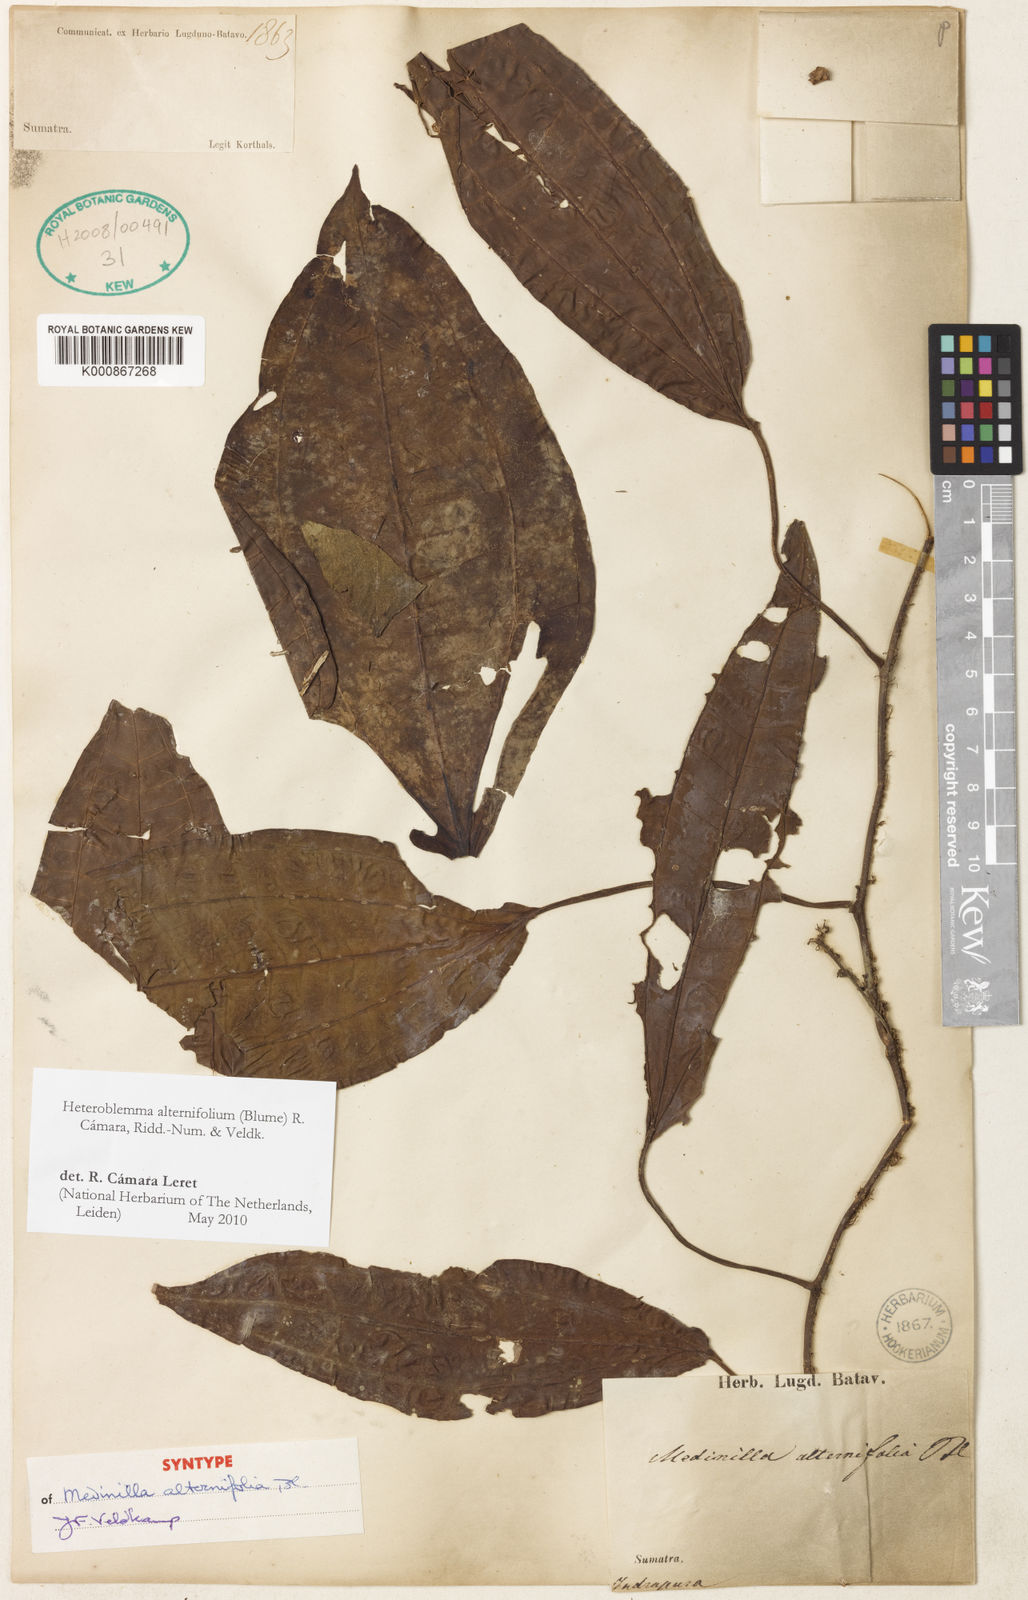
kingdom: Plantae
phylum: Tracheophyta
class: Magnoliopsida
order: Myrtales
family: Melastomataceae
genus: Heteroblemma
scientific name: Heteroblemma alternifolium
